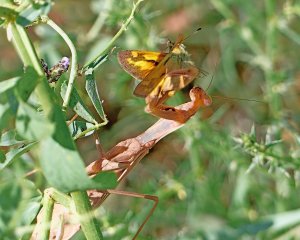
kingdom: Animalia
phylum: Arthropoda
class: Insecta
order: Lepidoptera
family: Hesperiidae
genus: Ochlodes
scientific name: Ochlodes sylvanoides
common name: Woodland Skipper
